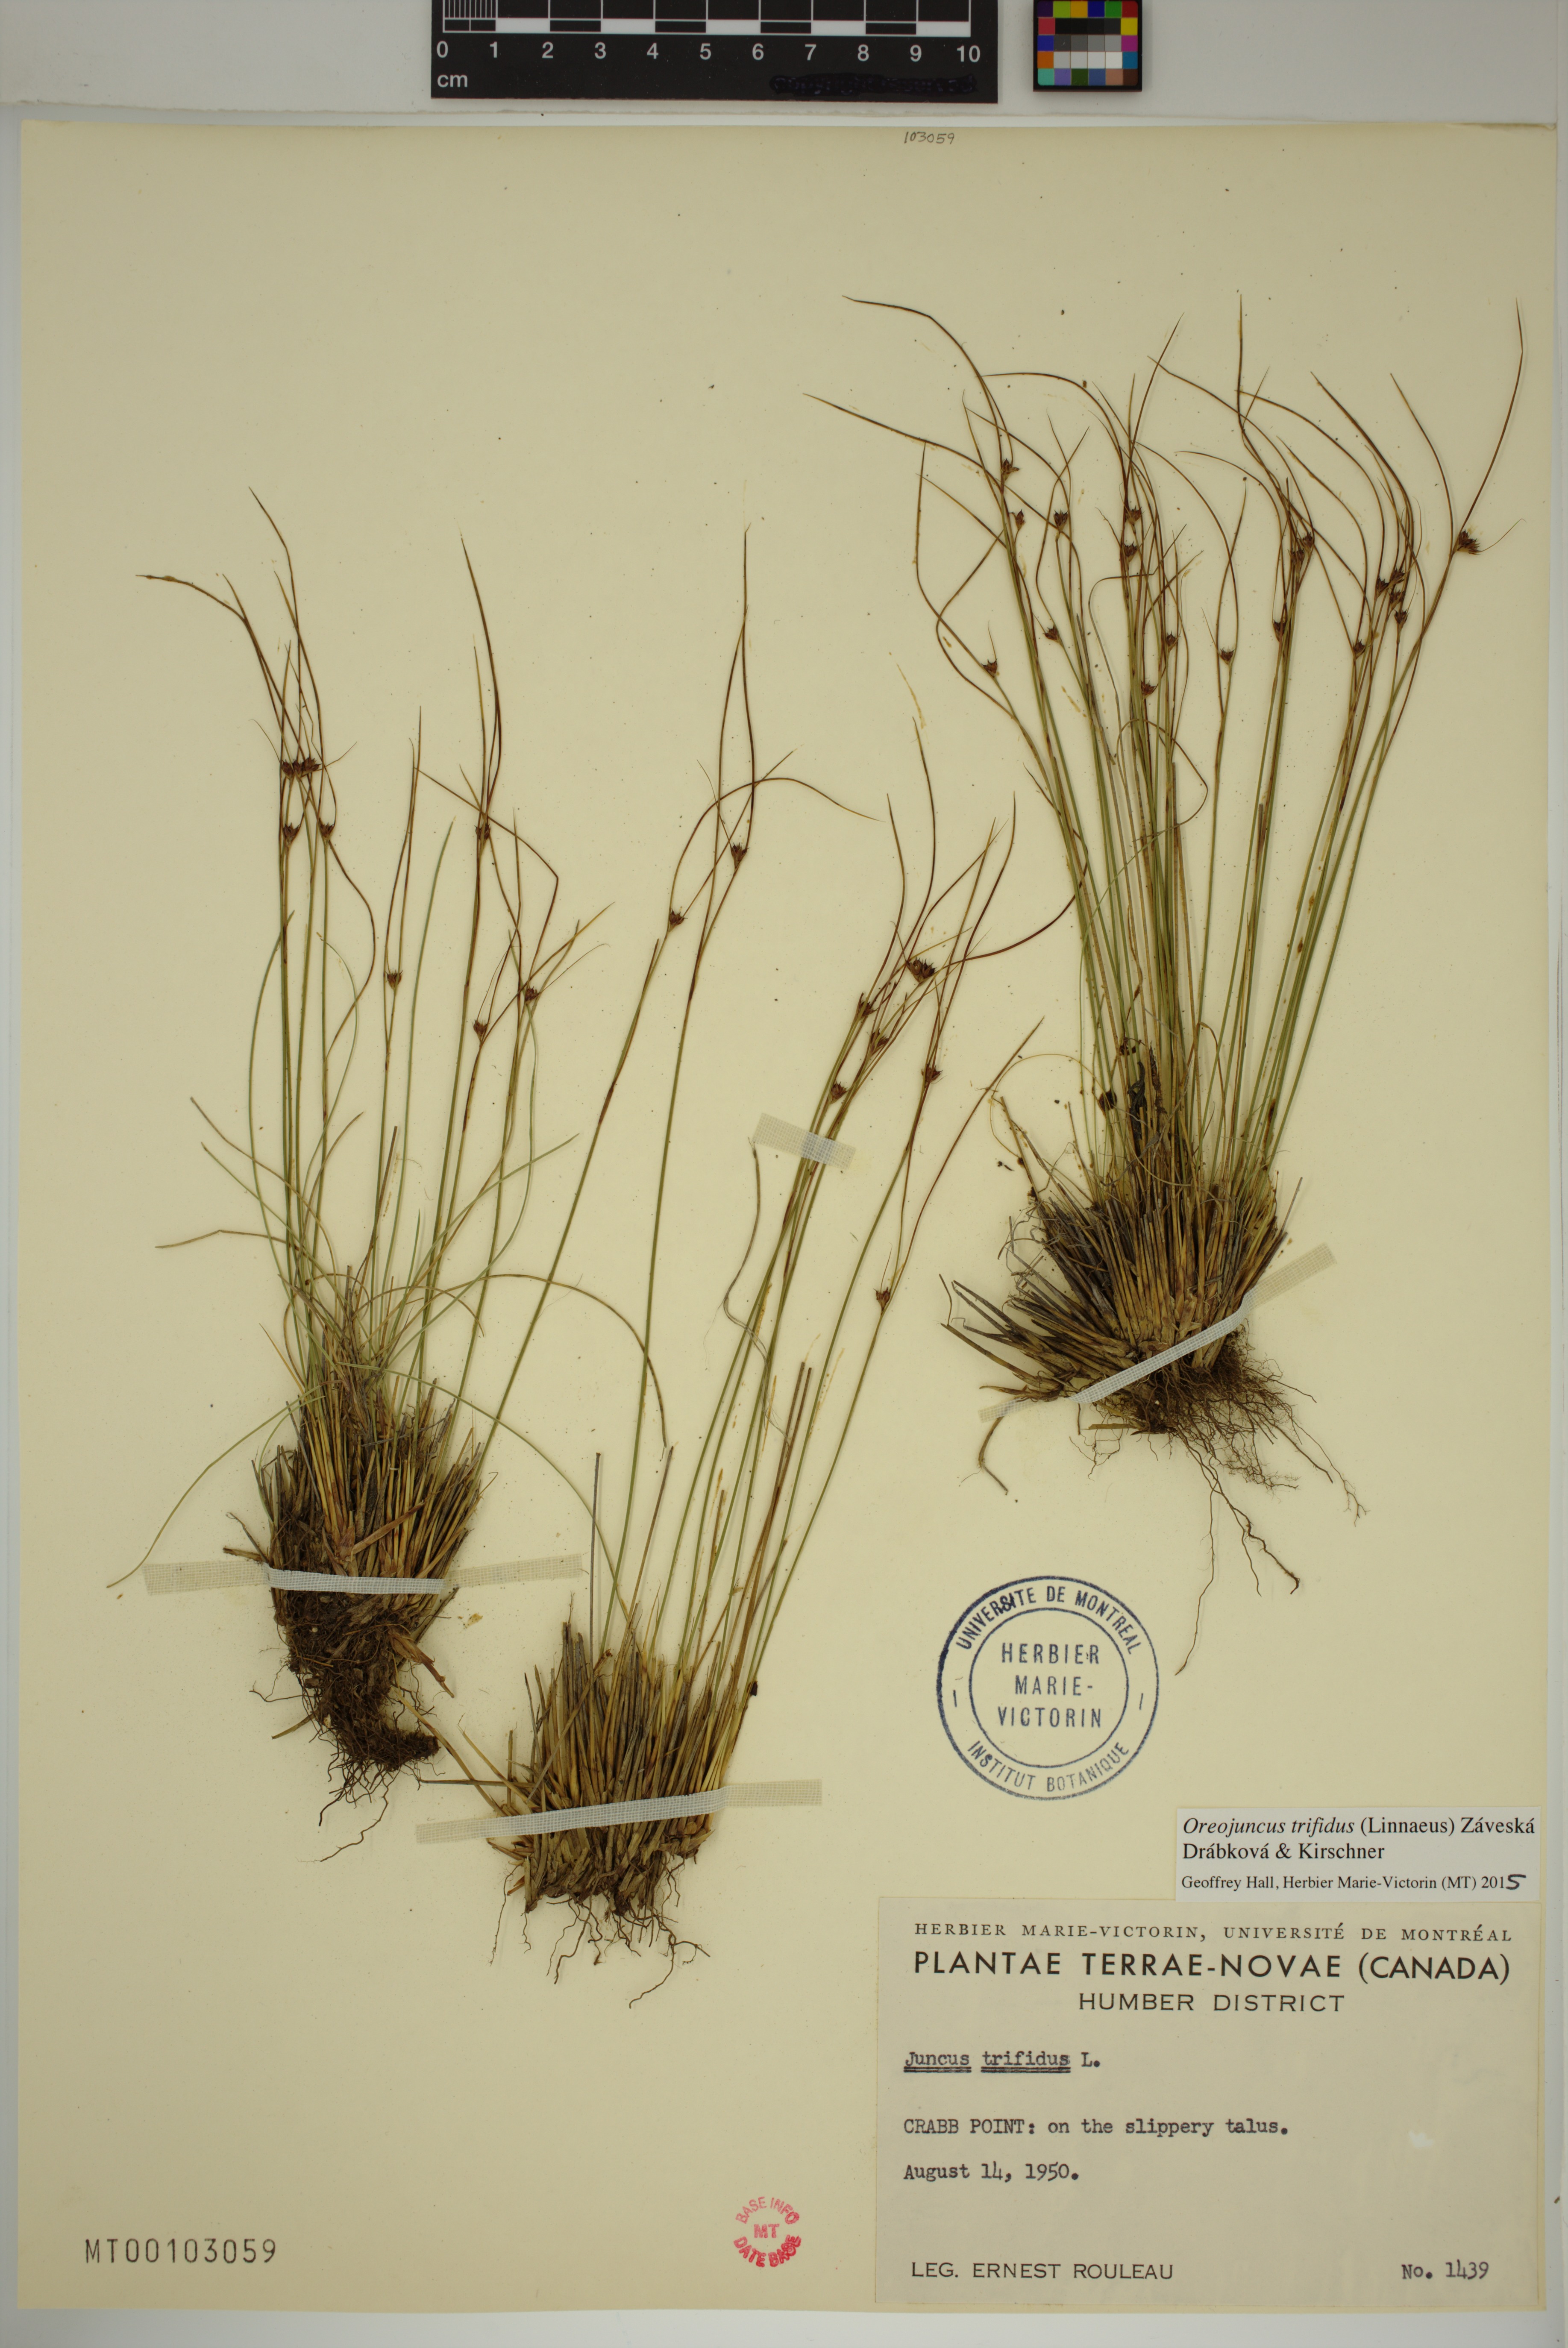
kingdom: Plantae
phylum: Tracheophyta
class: Liliopsida
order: Poales
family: Juncaceae
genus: Oreojuncus
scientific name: Oreojuncus trifidus
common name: Highland rush
